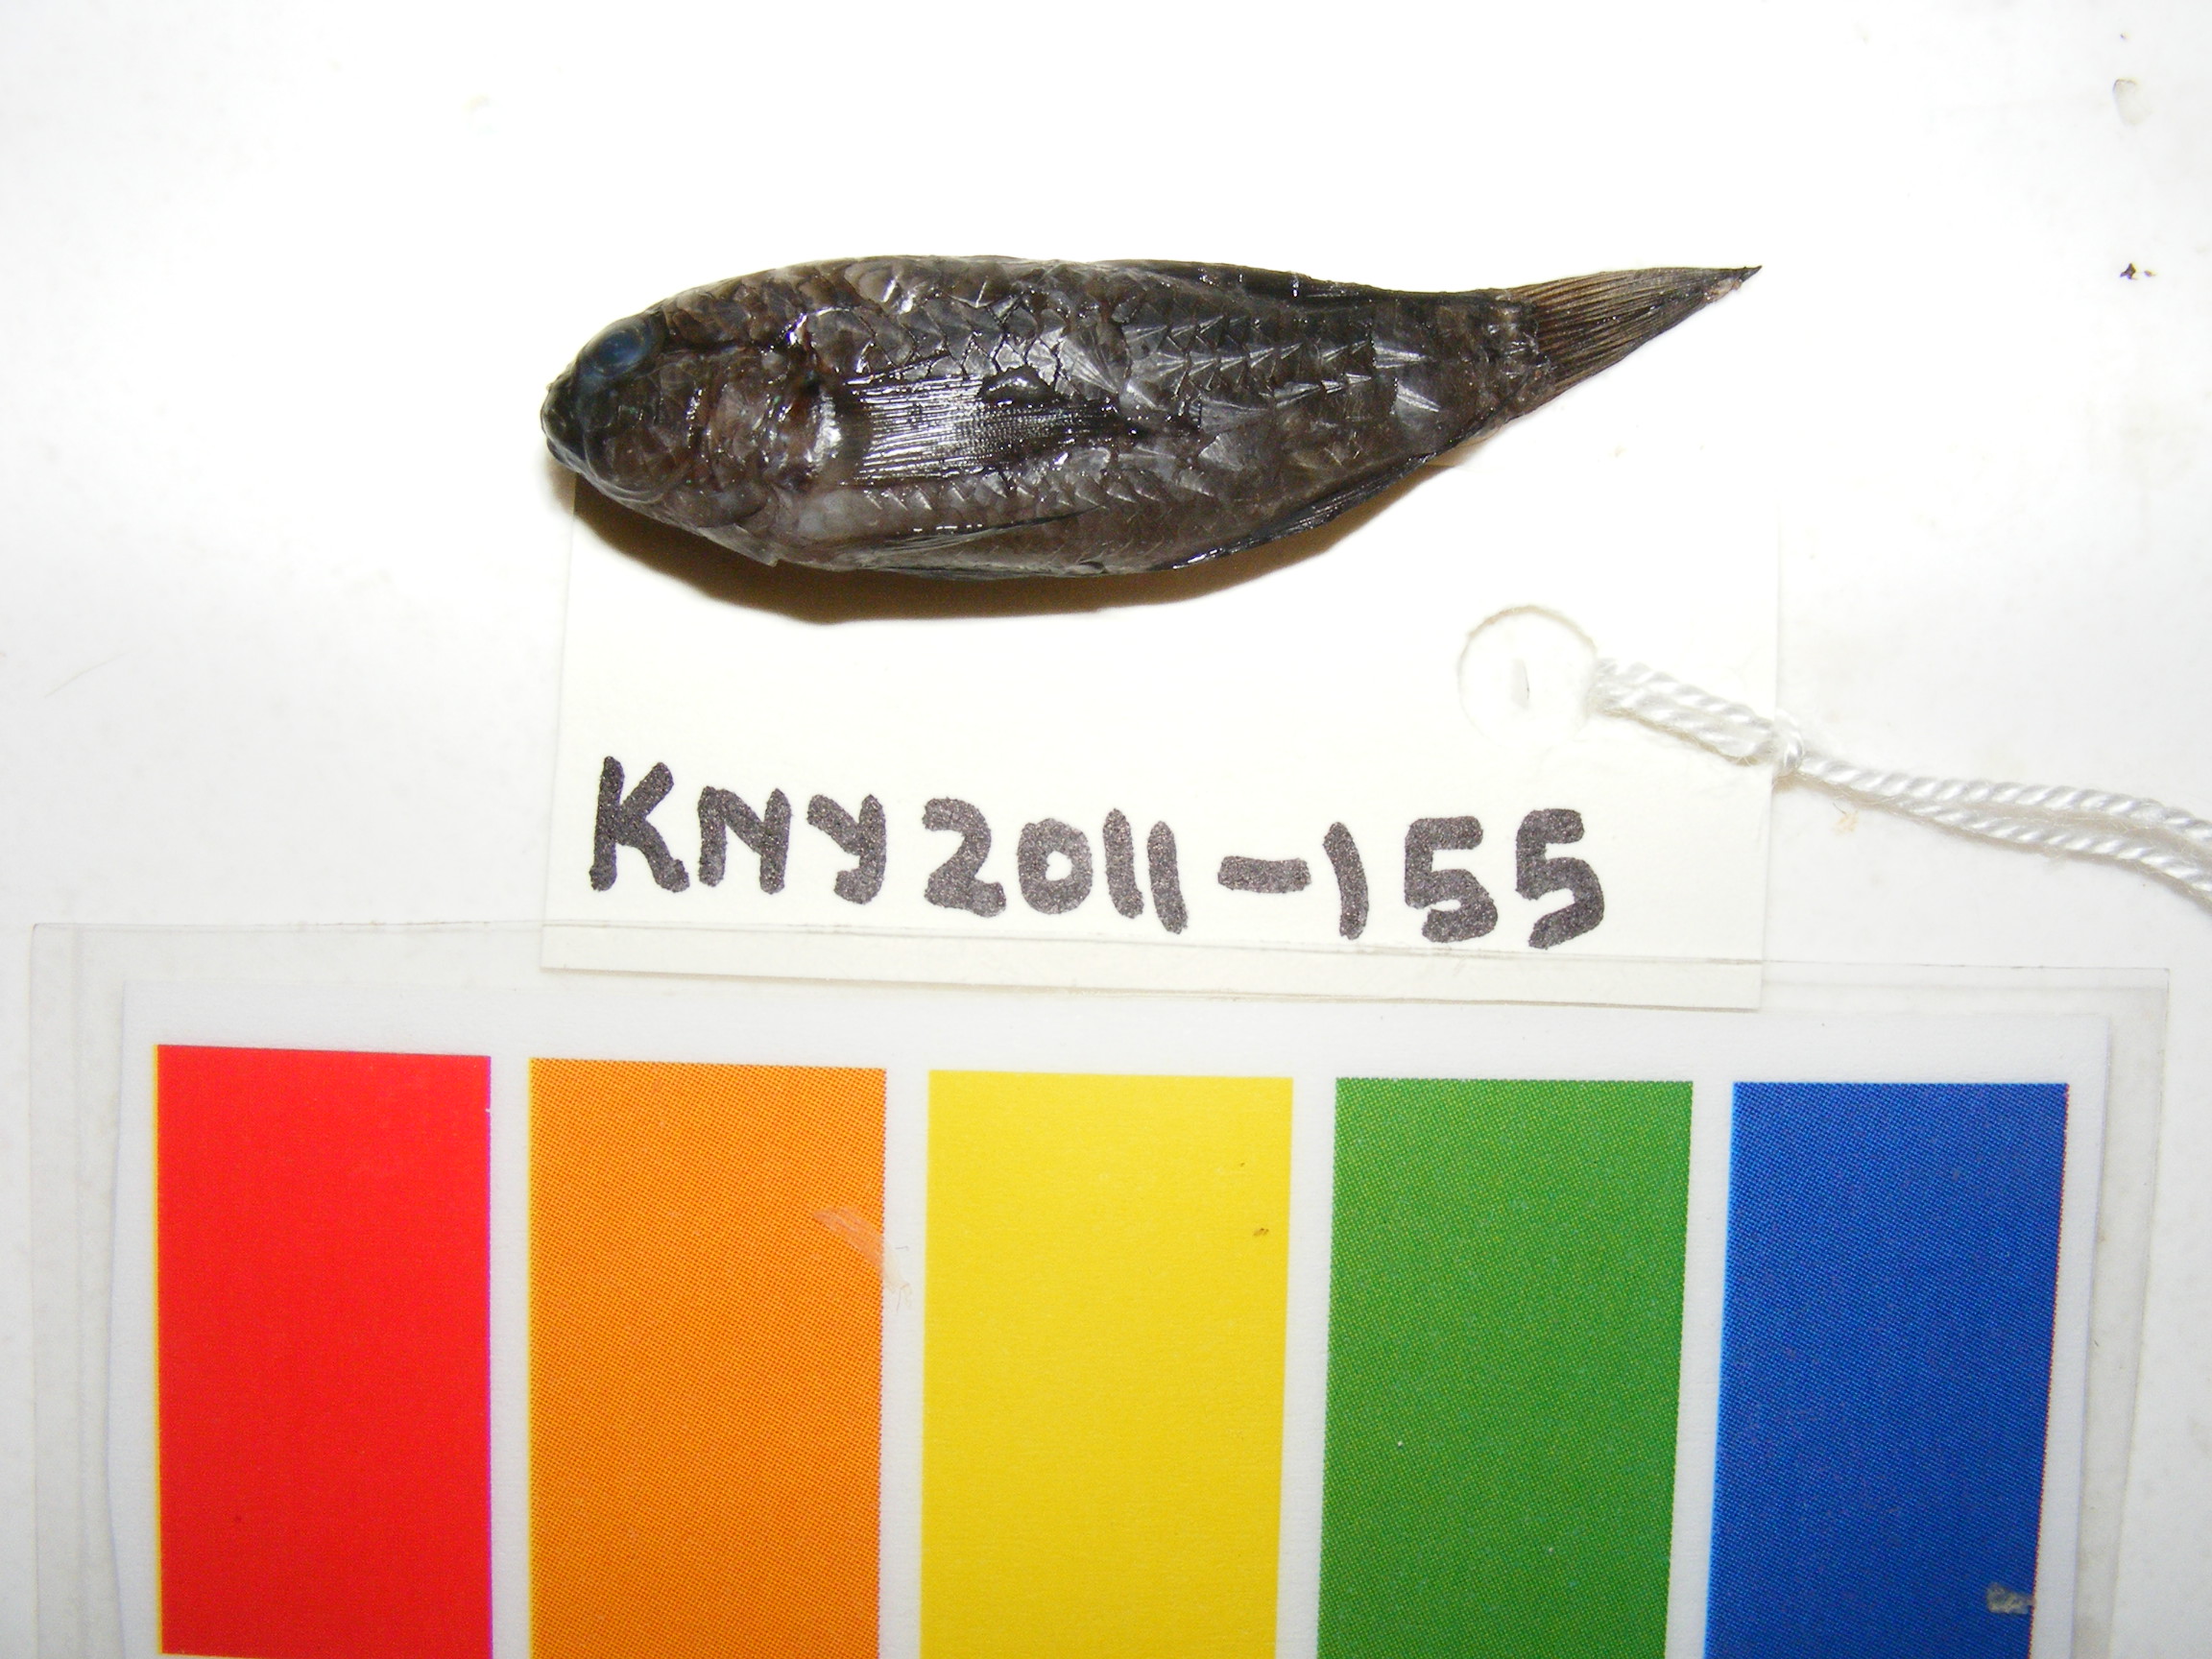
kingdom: Animalia
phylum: Chordata
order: Perciformes
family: Gobiidae
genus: Asterropteryx
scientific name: Asterropteryx semipunctata
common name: Starry goby
